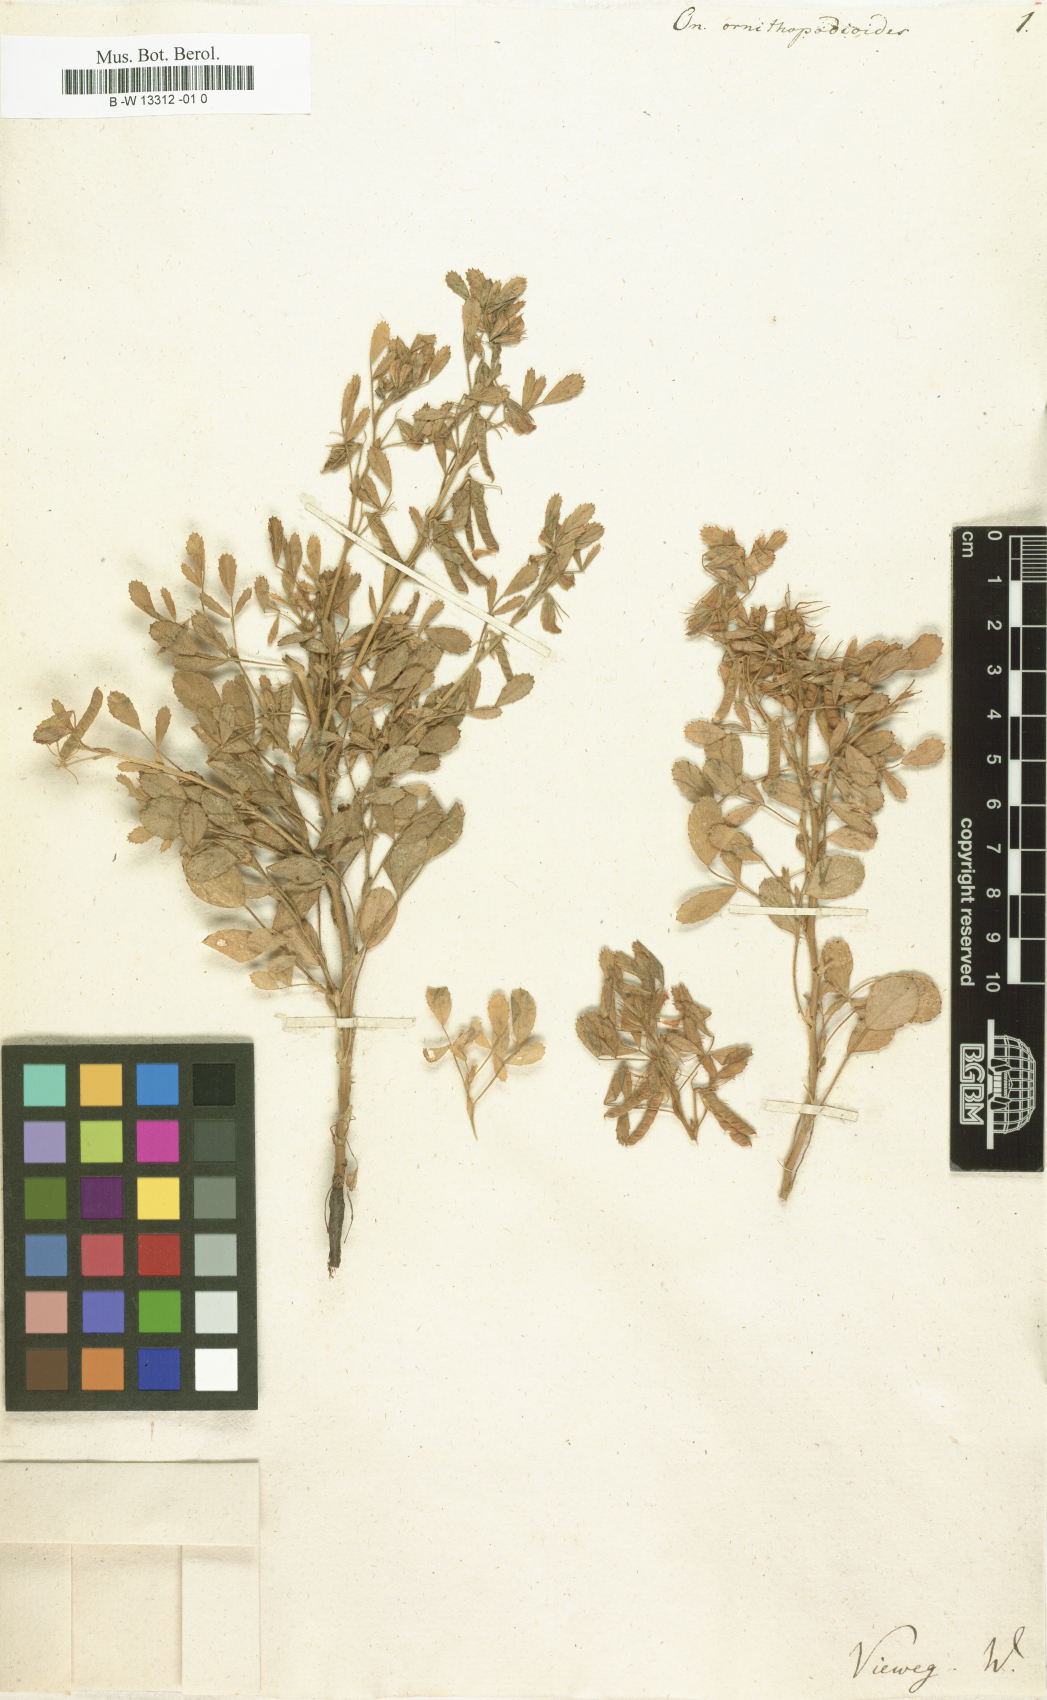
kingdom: Plantae
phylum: Tracheophyta
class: Magnoliopsida
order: Fabales
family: Fabaceae
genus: Ononis
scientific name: Ononis ornithopodioides
